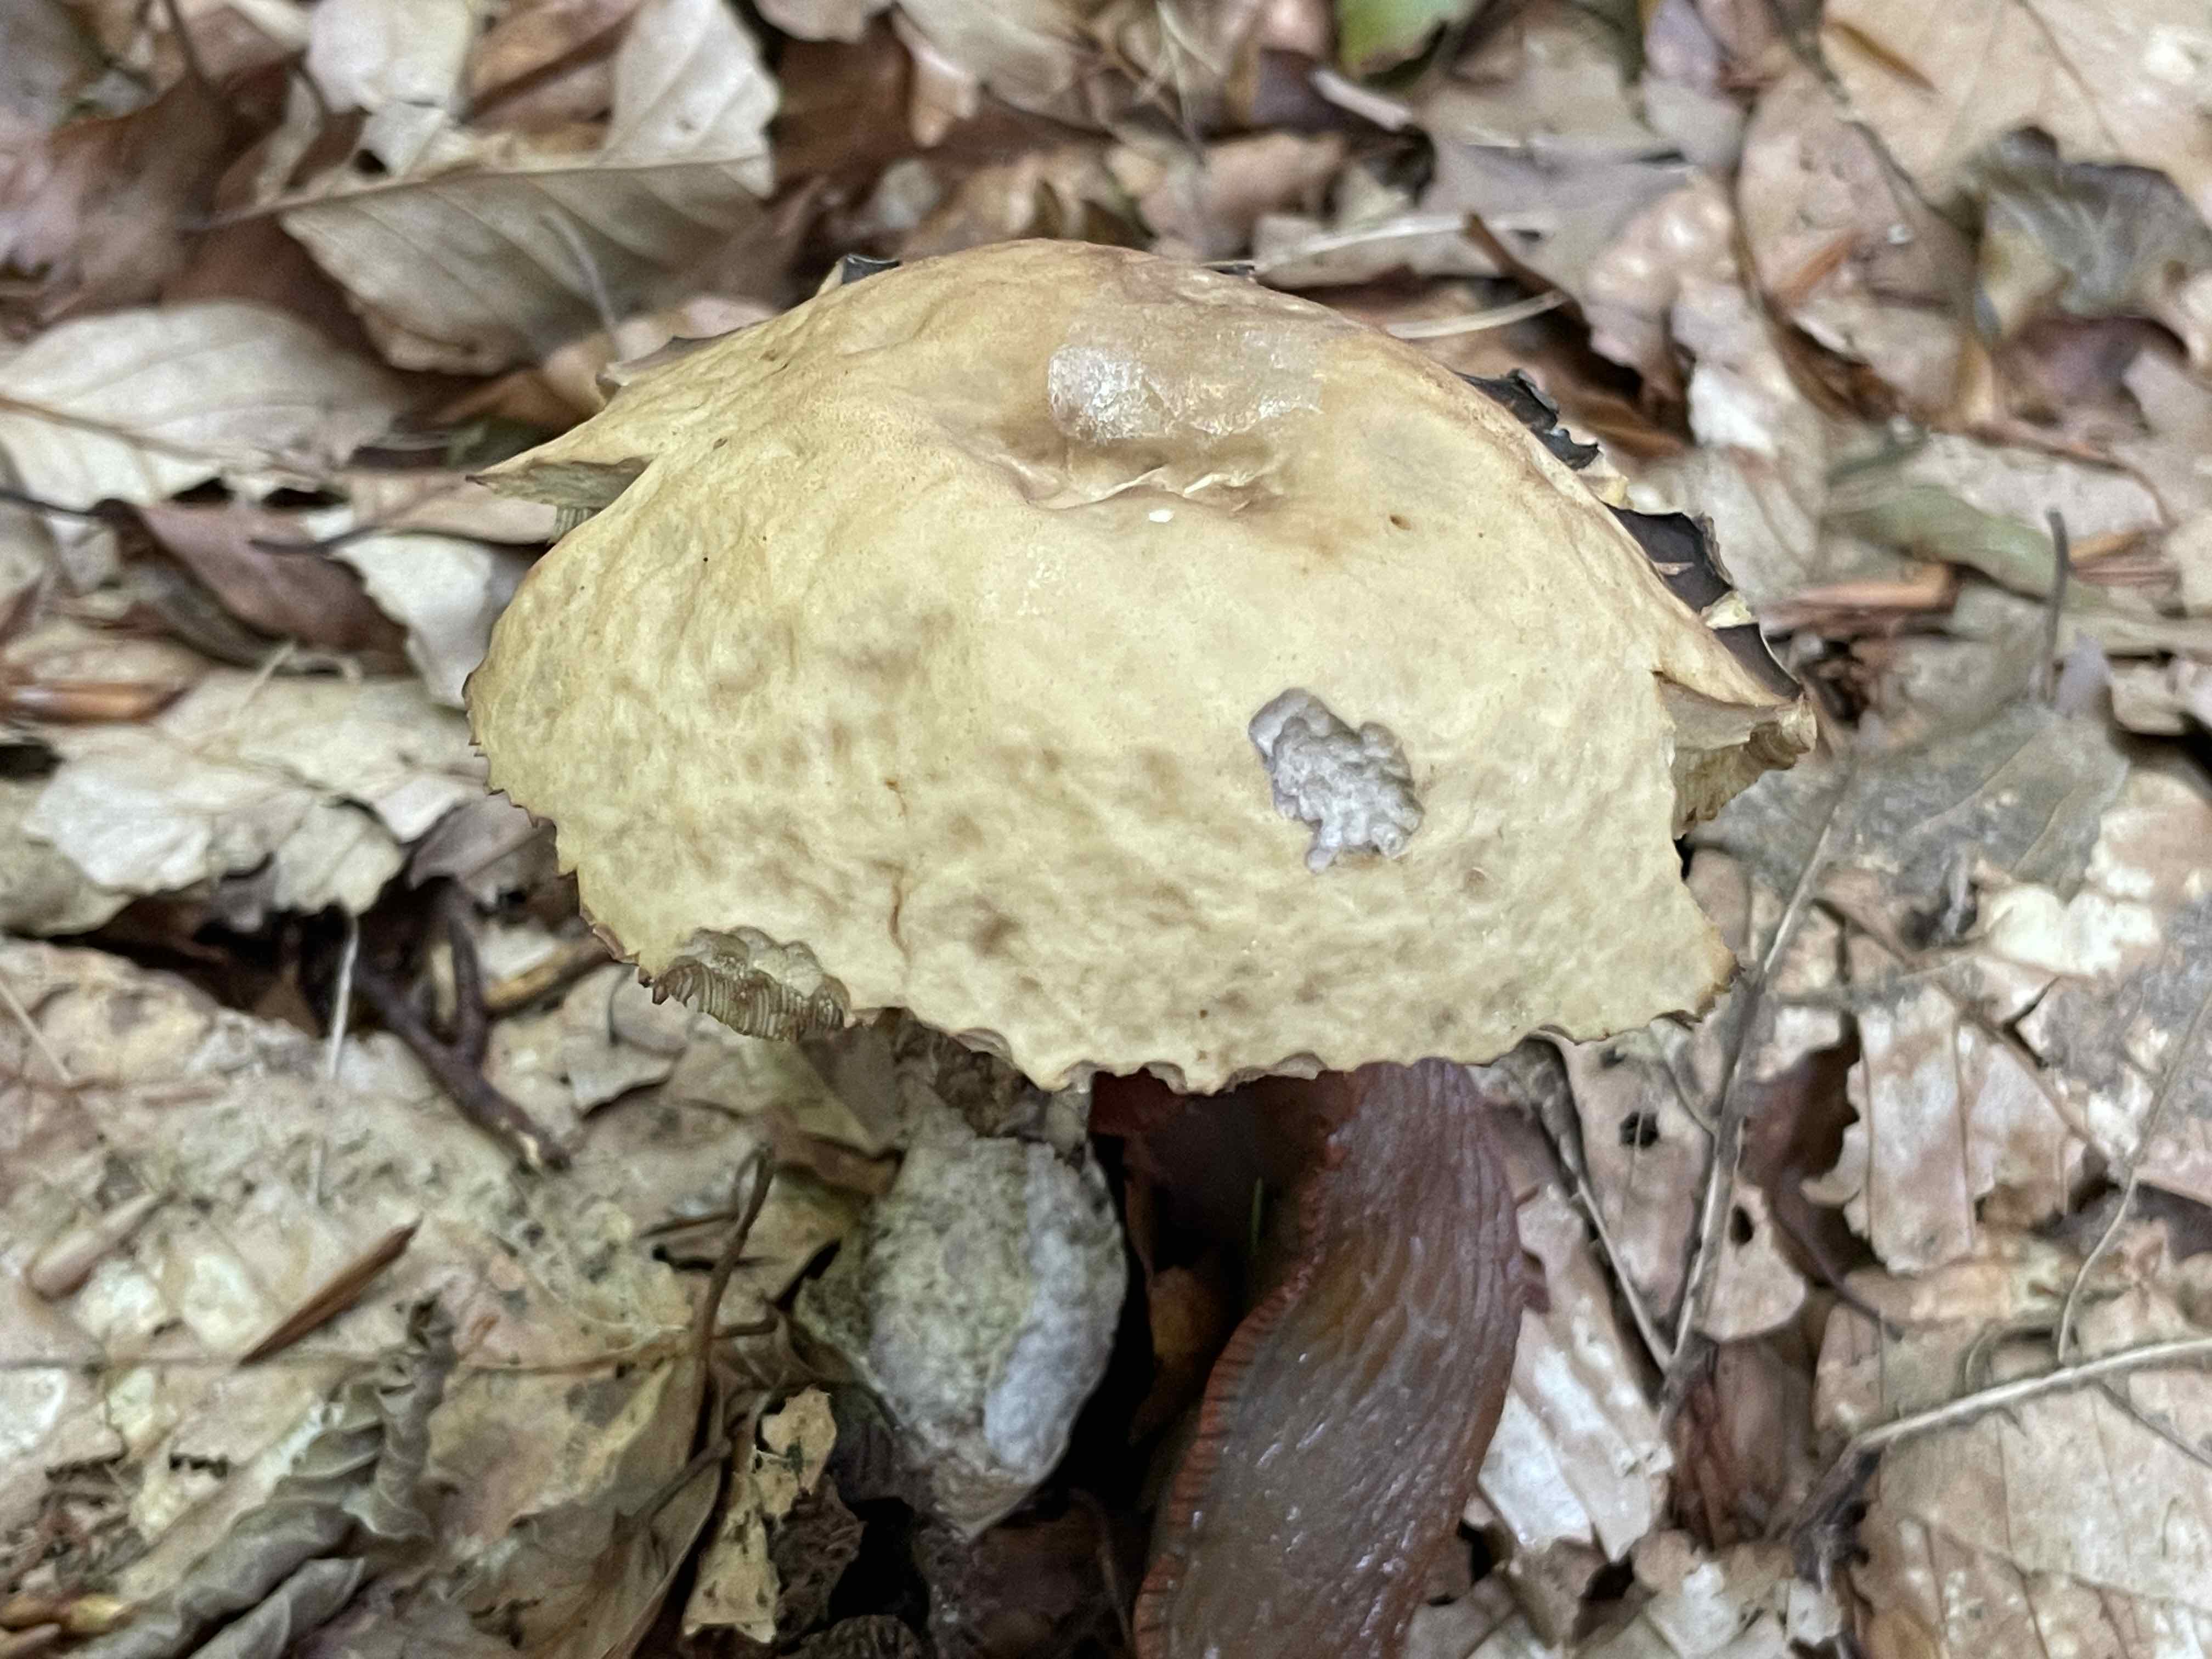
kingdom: Fungi
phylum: Basidiomycota
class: Agaricomycetes
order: Boletales
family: Boletaceae
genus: Leccinellum
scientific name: Leccinellum pseudoscabrum
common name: avnbøg-skælrørhat
